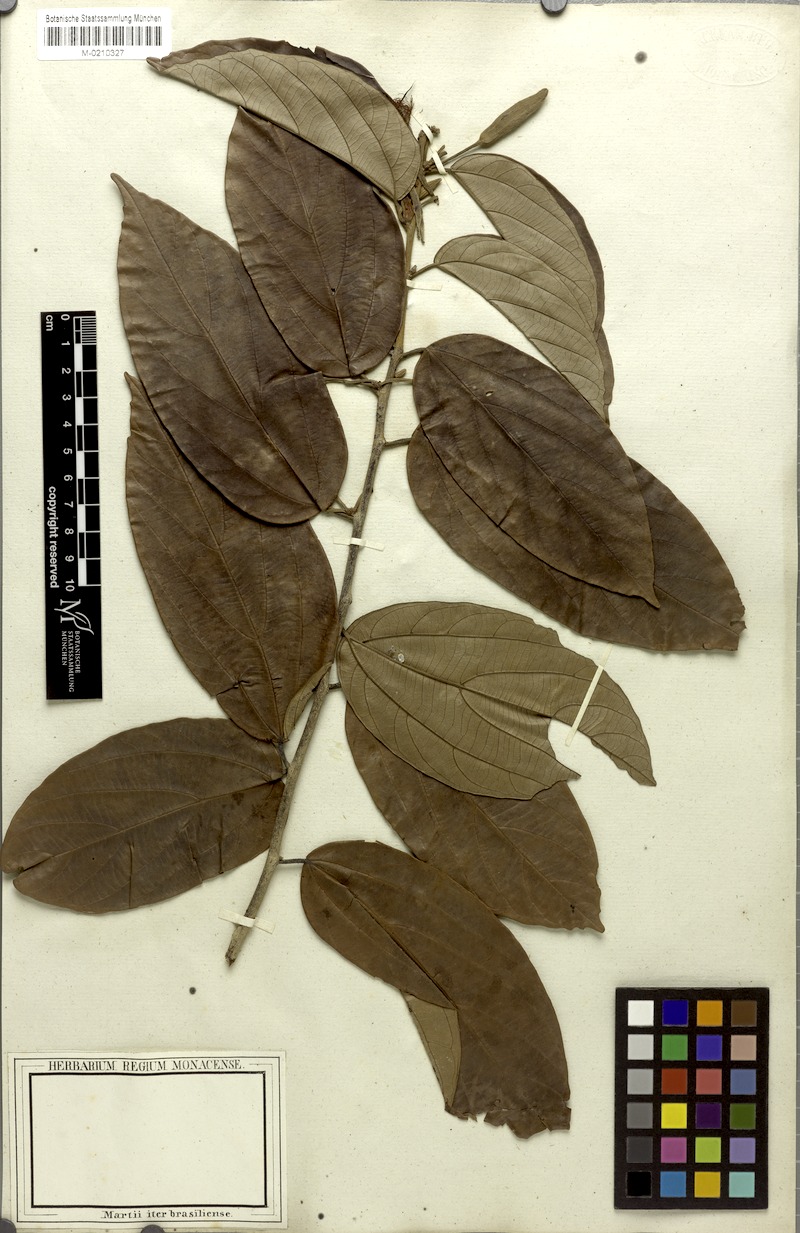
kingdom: Plantae
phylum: Tracheophyta
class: Magnoliopsida
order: Malvales
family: Malvaceae
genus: Mollia
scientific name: Mollia speciosa
